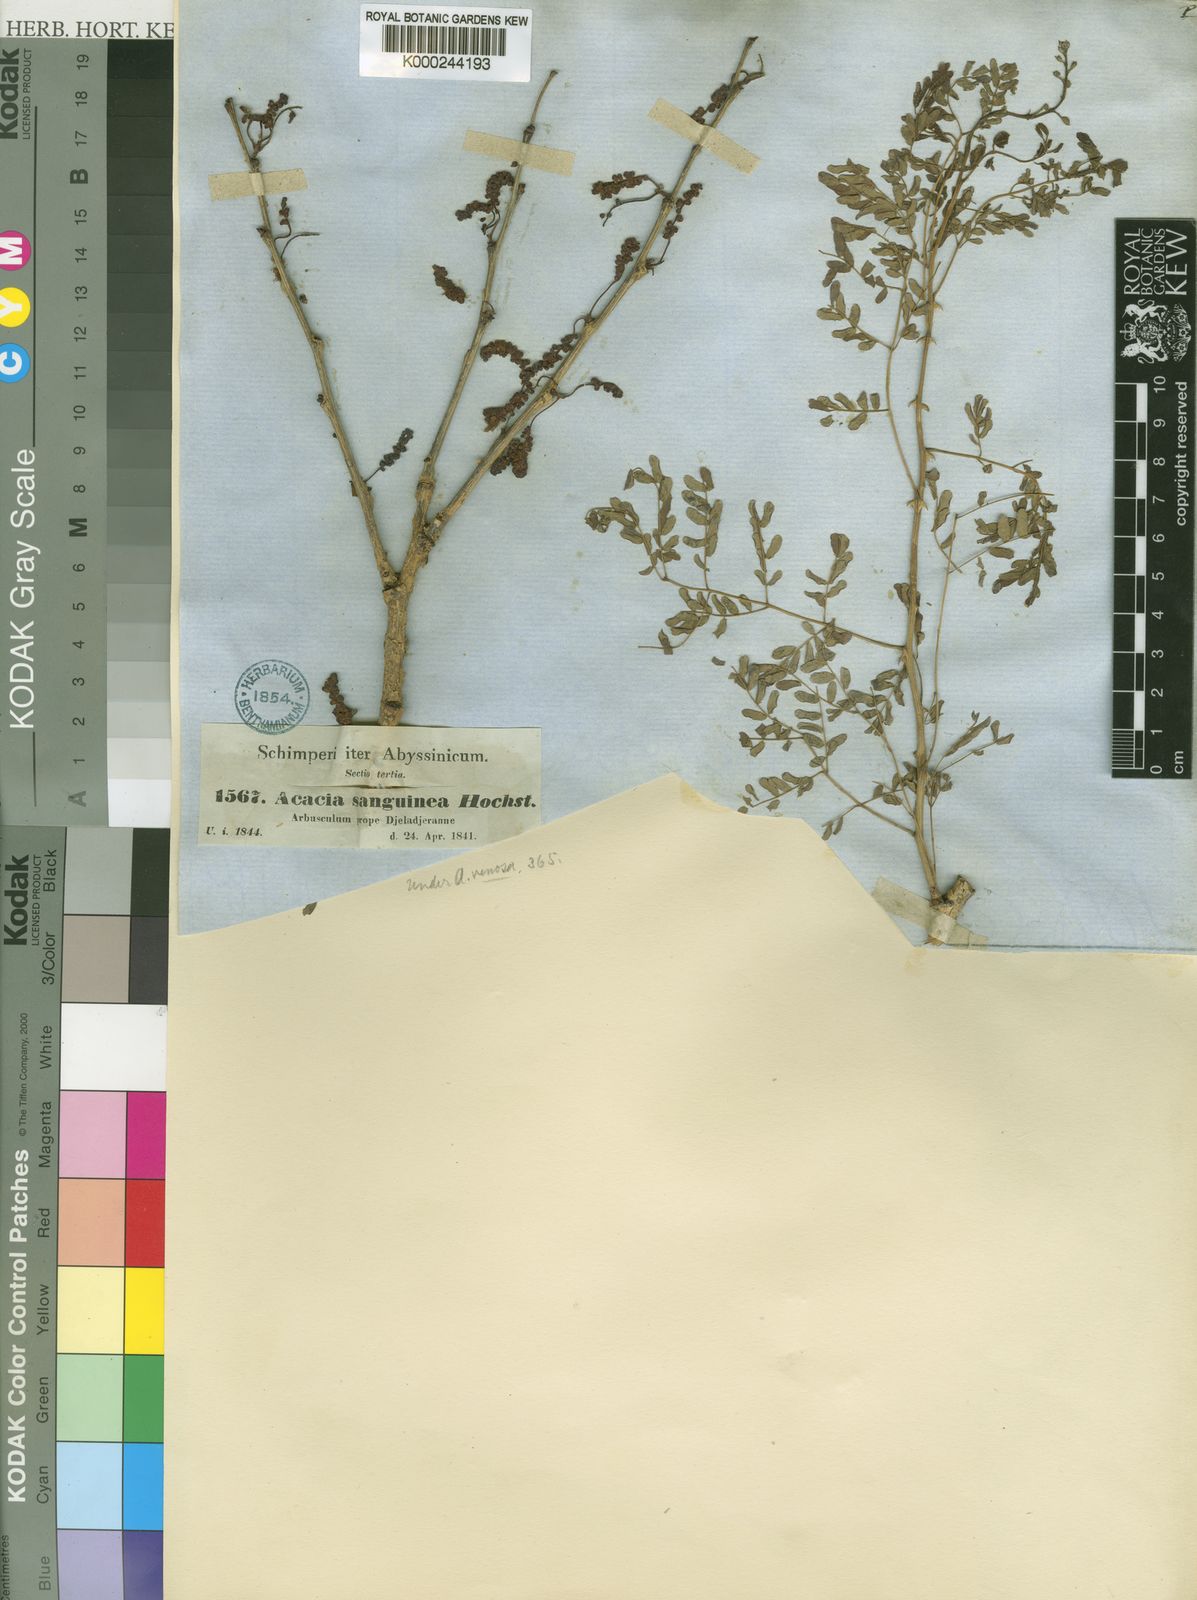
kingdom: Plantae
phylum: Tracheophyta
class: Magnoliopsida
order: Fabales
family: Fabaceae
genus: Senegalia
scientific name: Senegalia venosa
